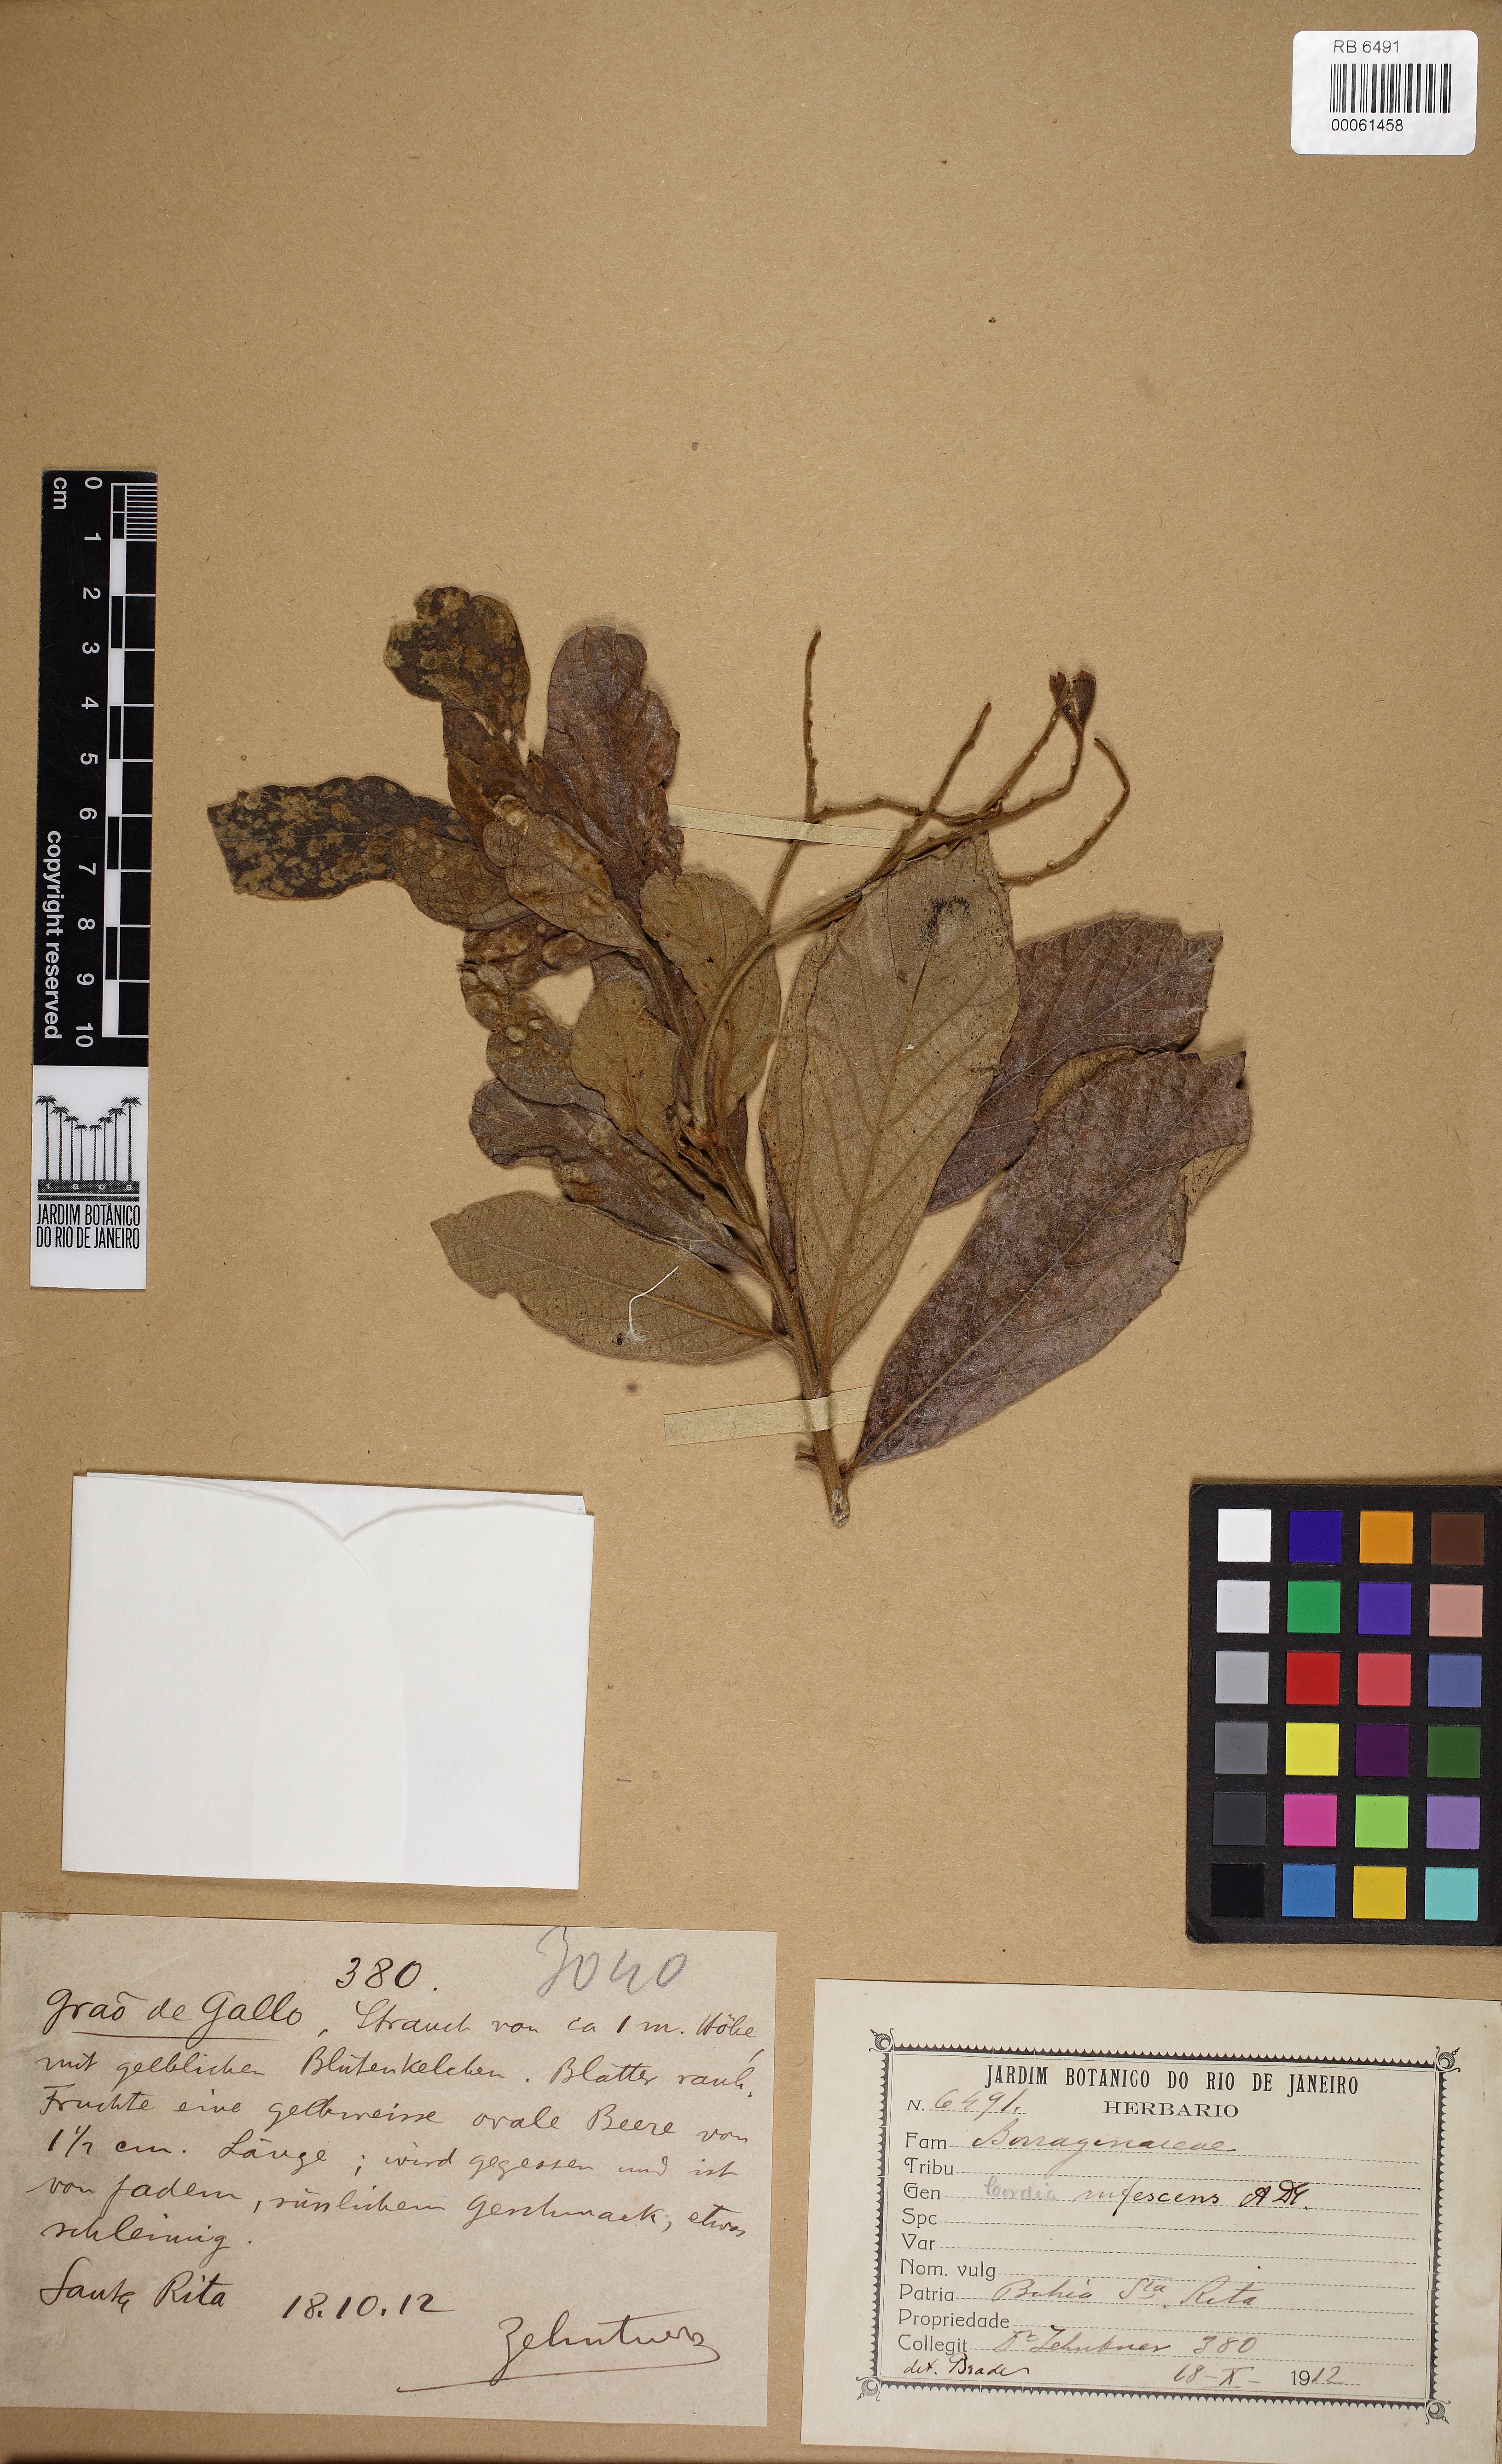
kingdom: Plantae
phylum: Tracheophyta
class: Magnoliopsida
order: Boraginales
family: Cordiaceae
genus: Cordia
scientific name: Cordia rufescens
